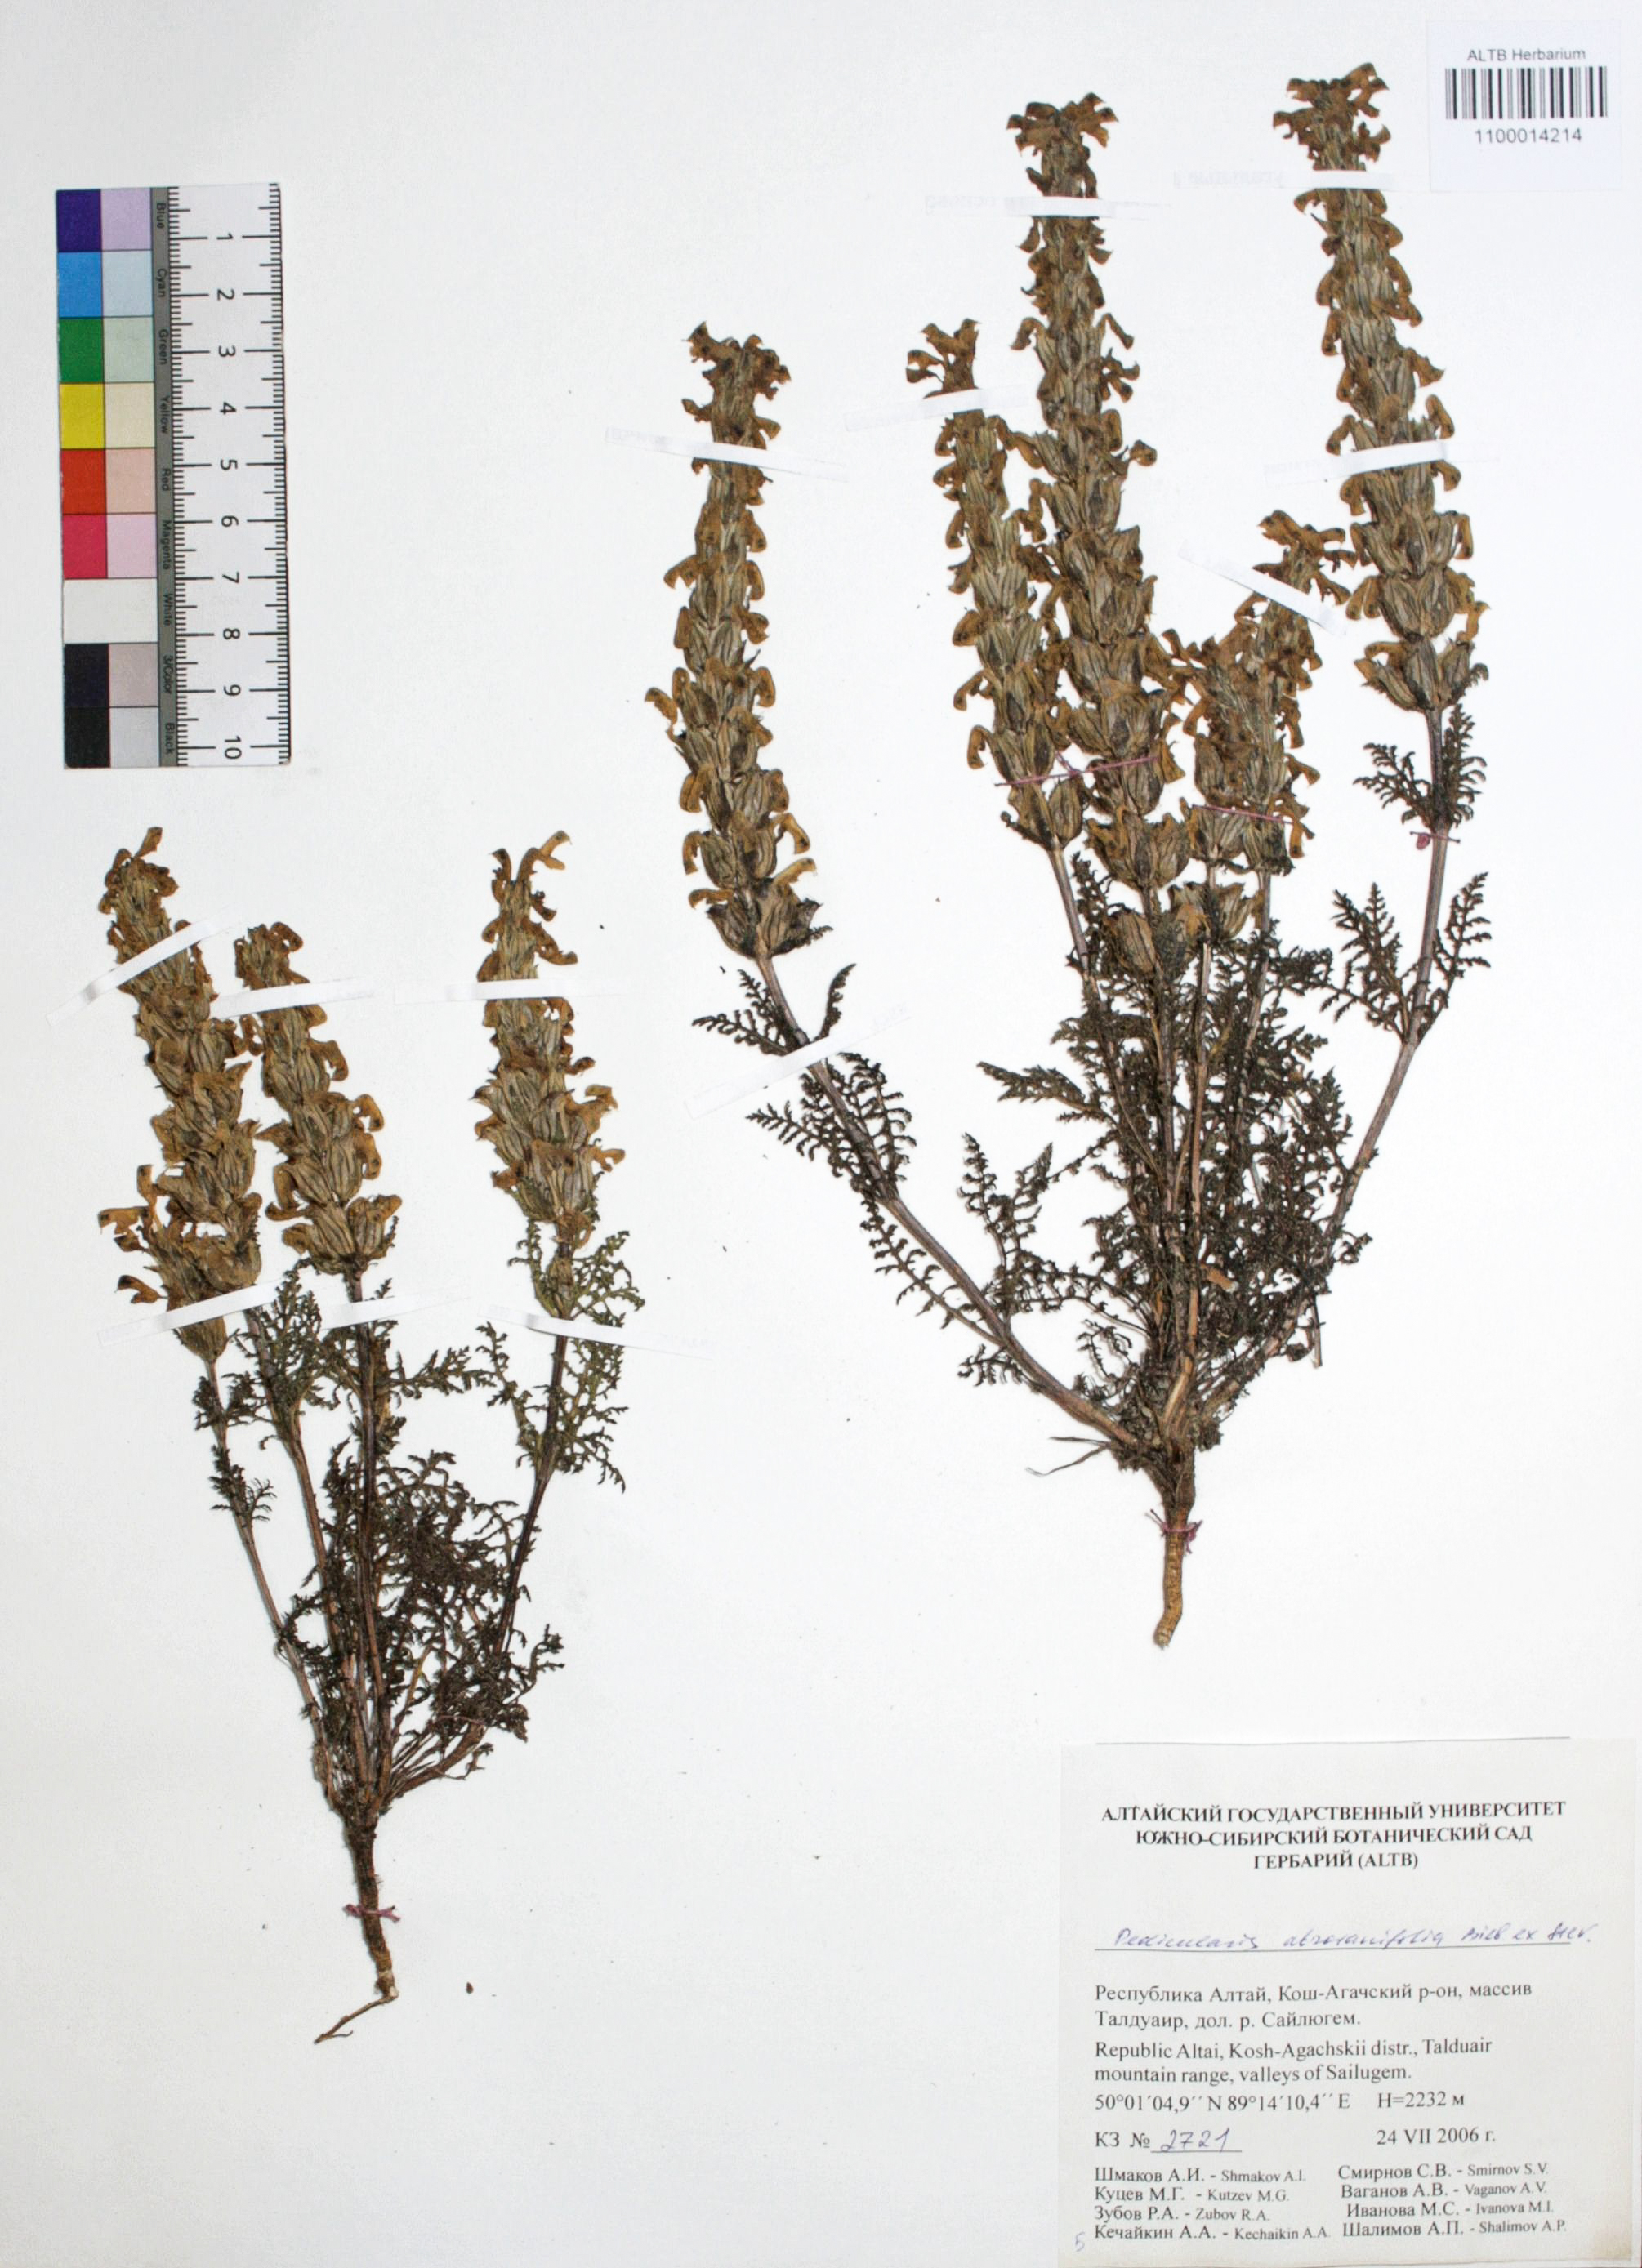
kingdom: Plantae
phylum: Tracheophyta
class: Magnoliopsida
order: Lamiales
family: Orobanchaceae
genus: Pedicularis
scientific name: Pedicularis abrotanifolia
